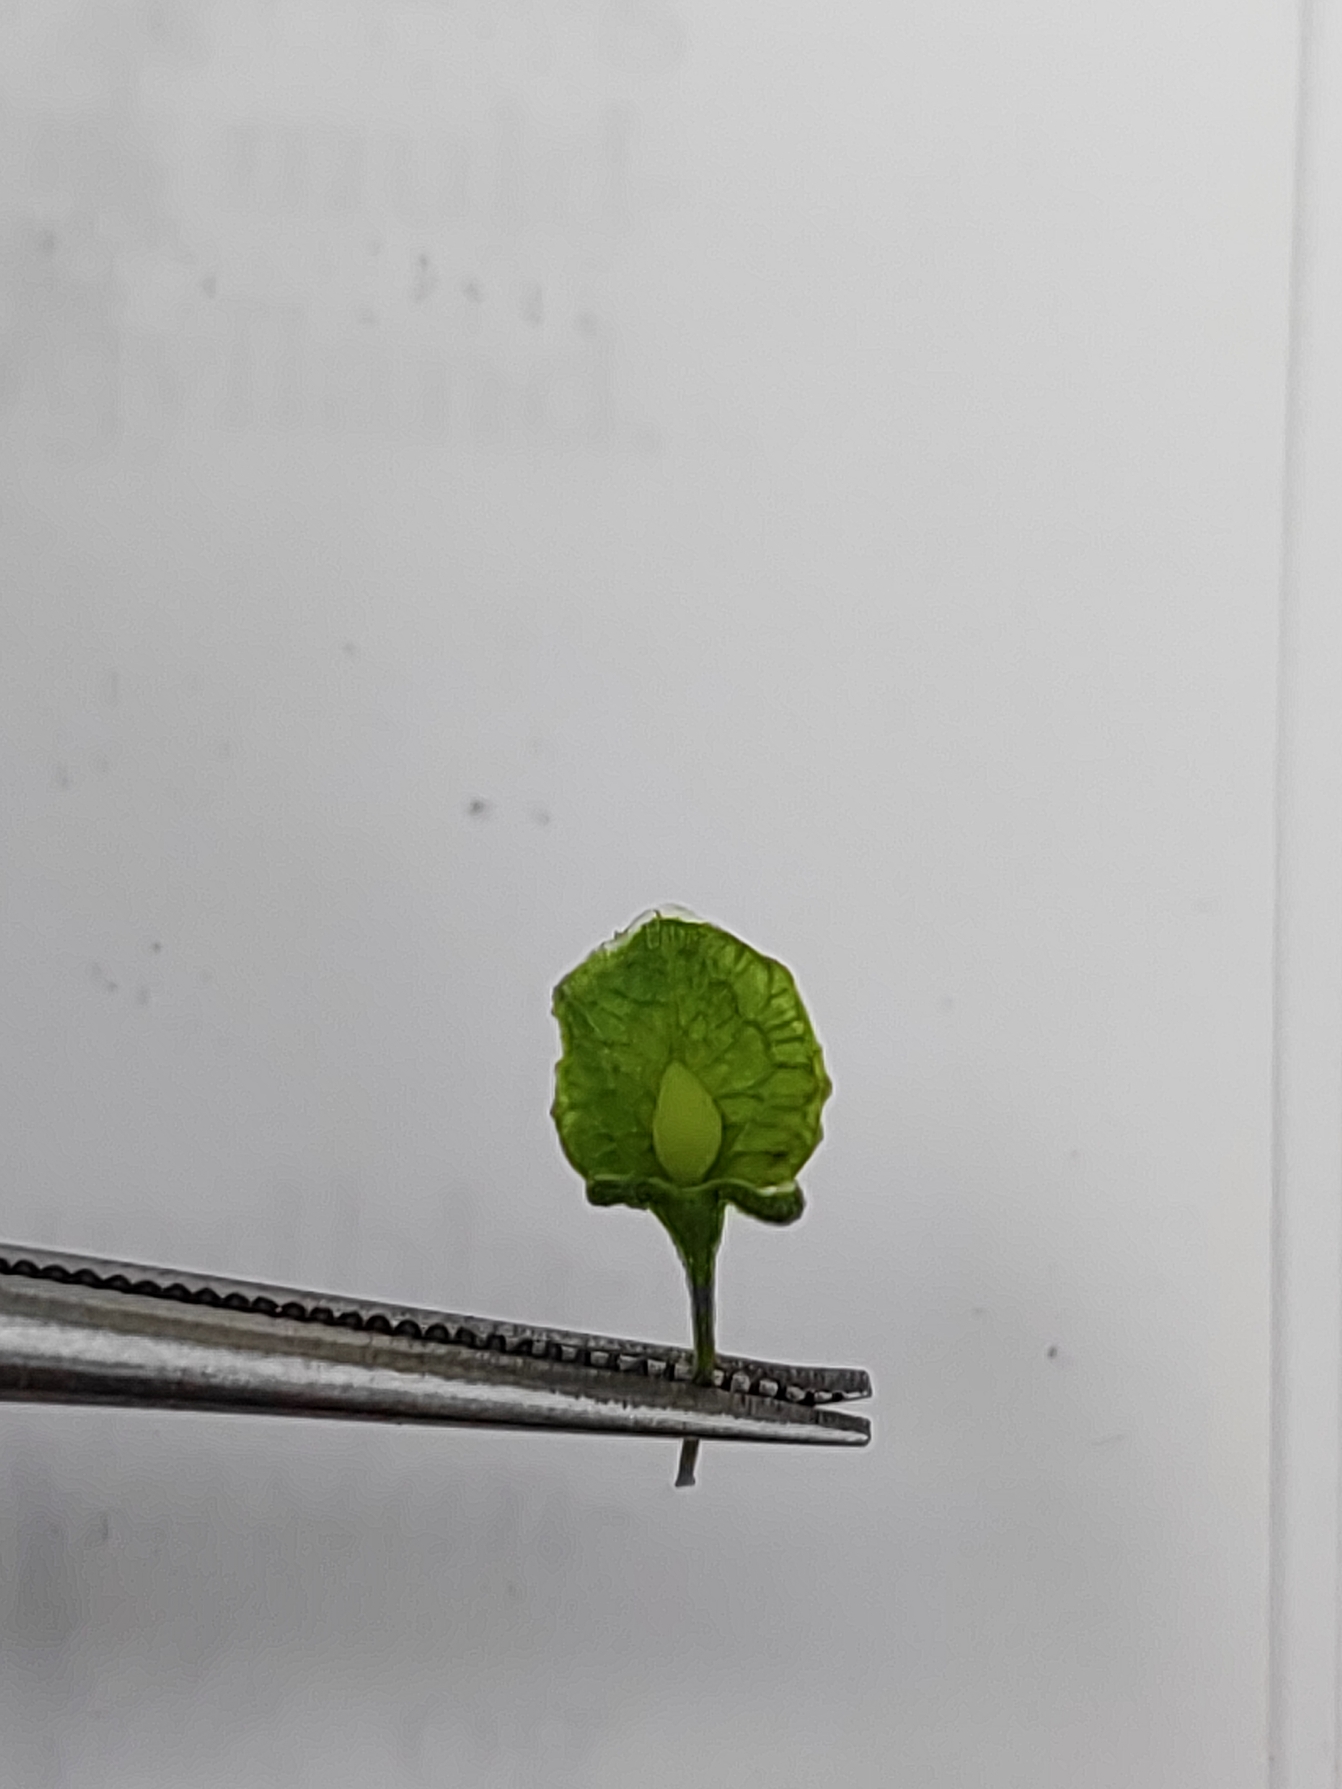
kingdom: Plantae
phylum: Tracheophyta
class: Magnoliopsida
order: Caryophyllales
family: Polygonaceae
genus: Rumex
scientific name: Rumex crispus
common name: Kruset skræppe
